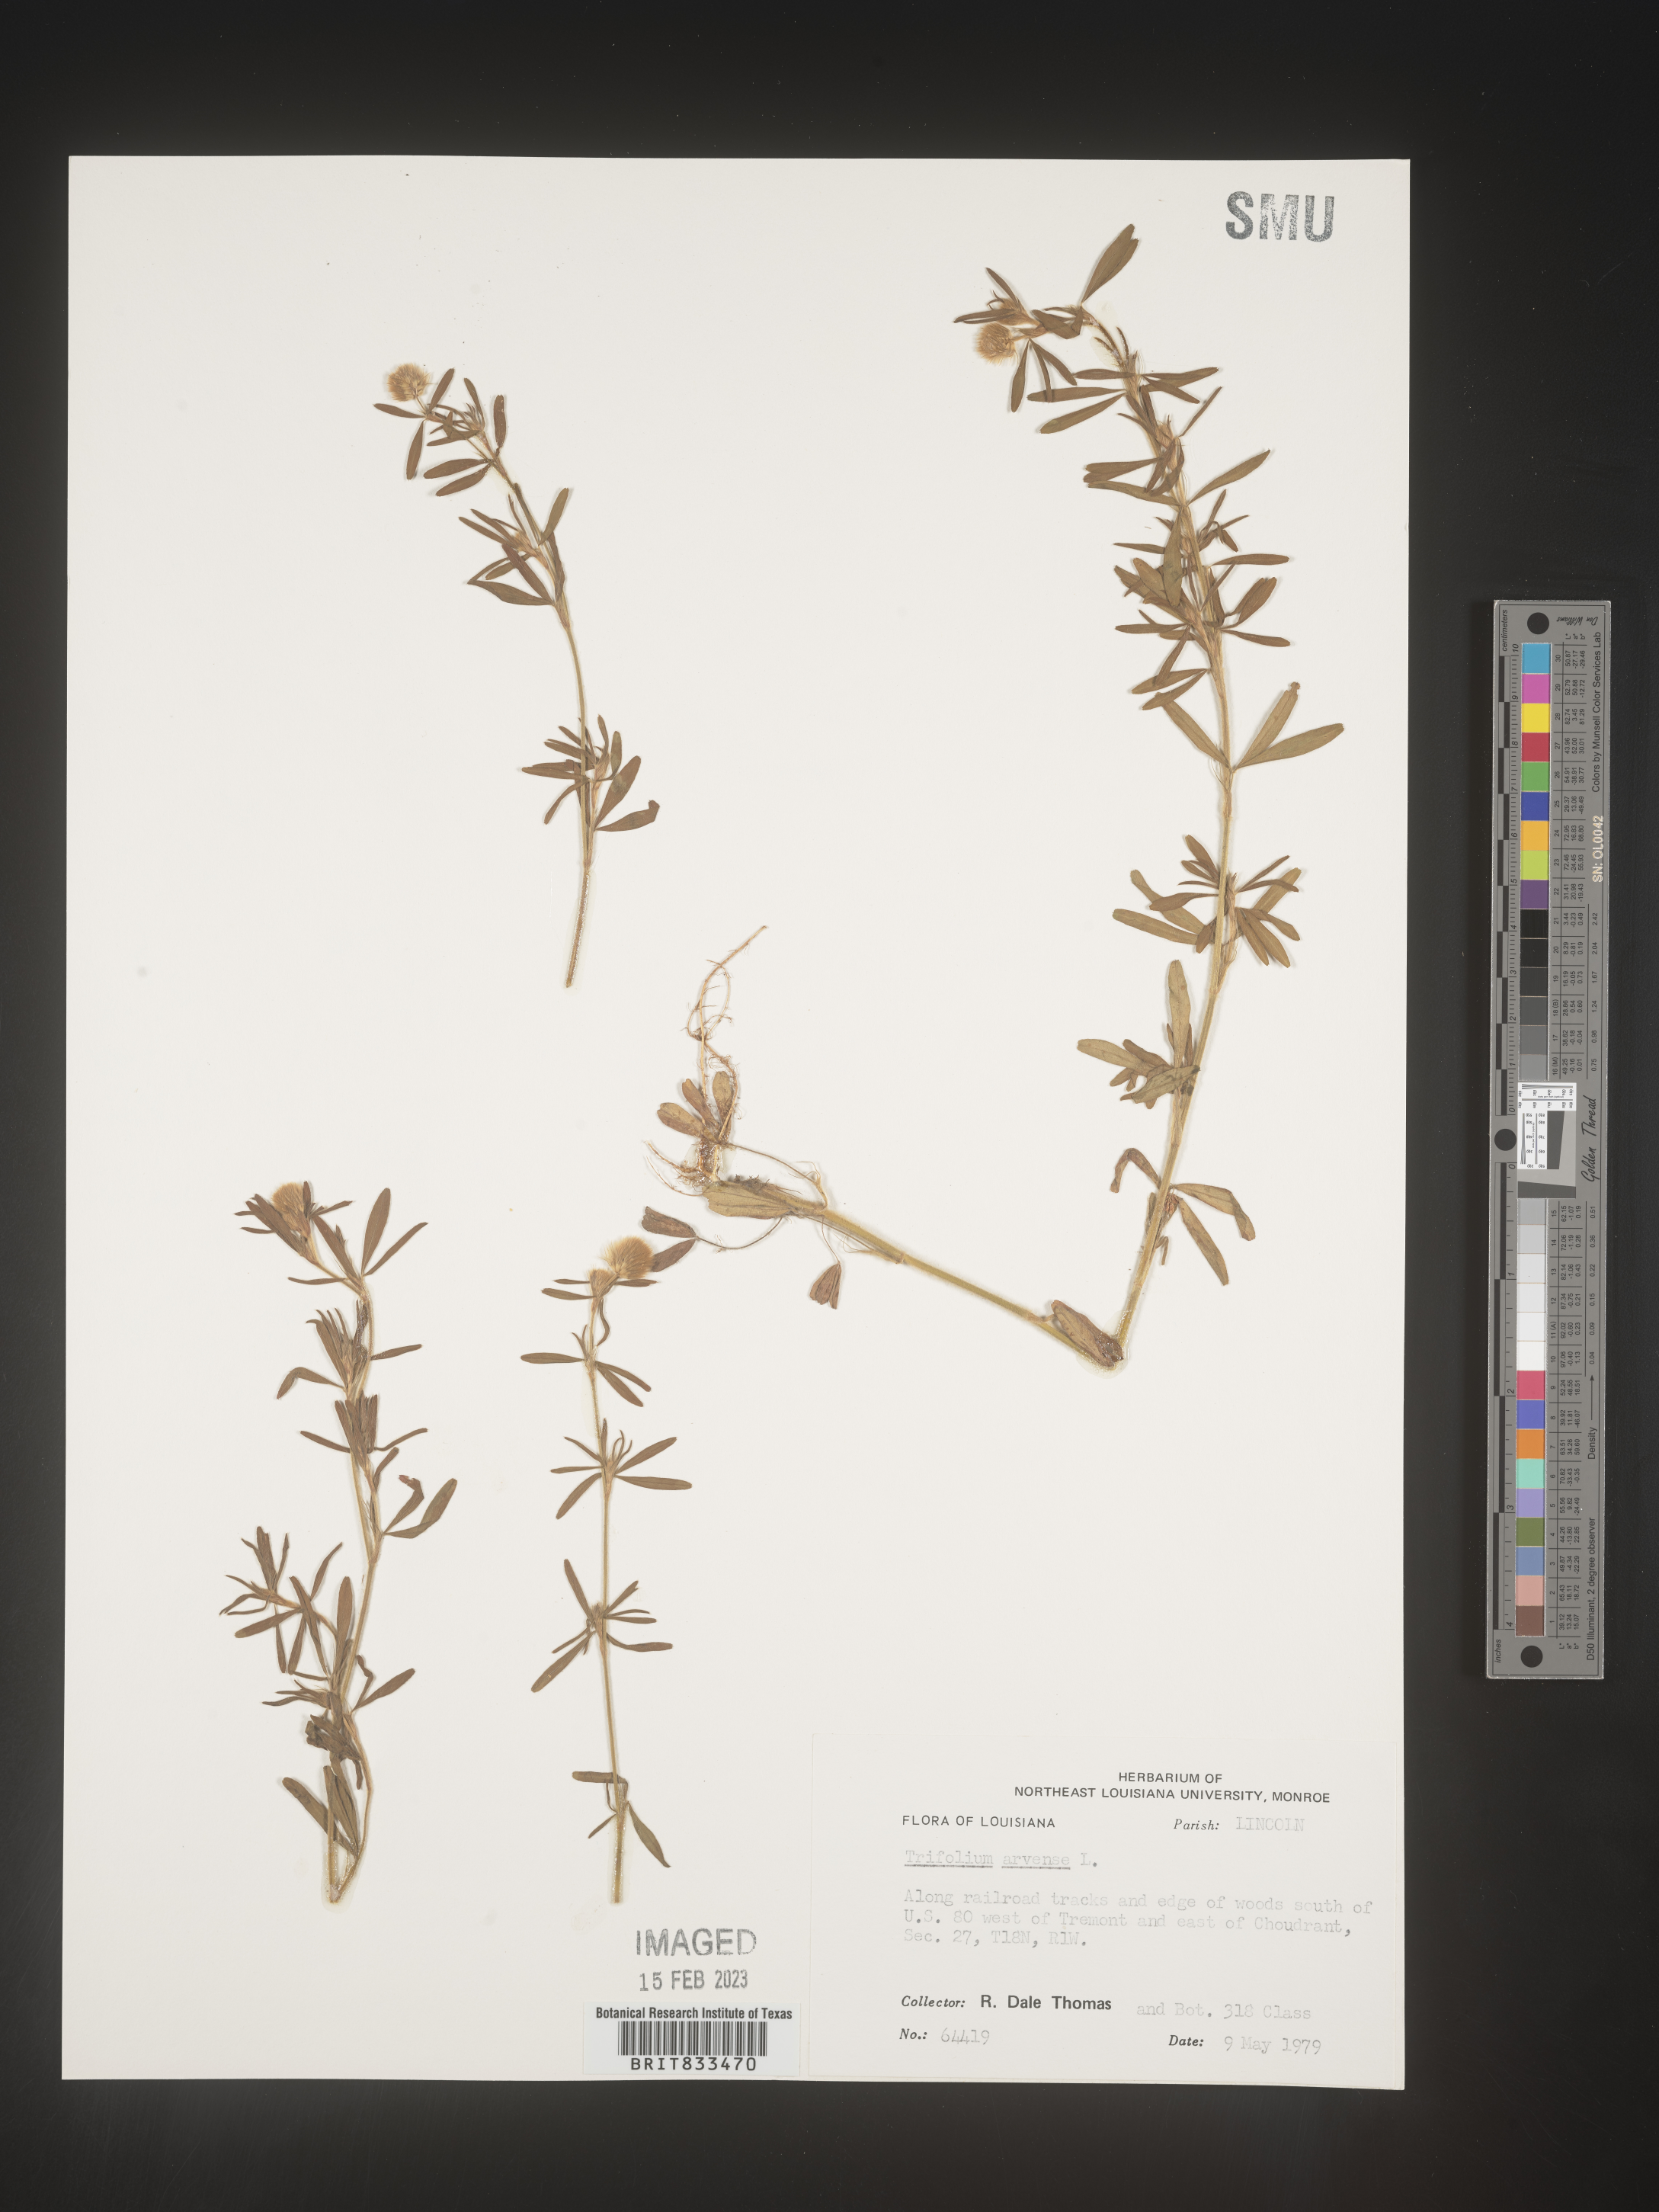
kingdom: Plantae
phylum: Tracheophyta
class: Magnoliopsida
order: Fabales
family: Fabaceae
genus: Trifolium
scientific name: Trifolium arvense
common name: Hare's-foot clover
